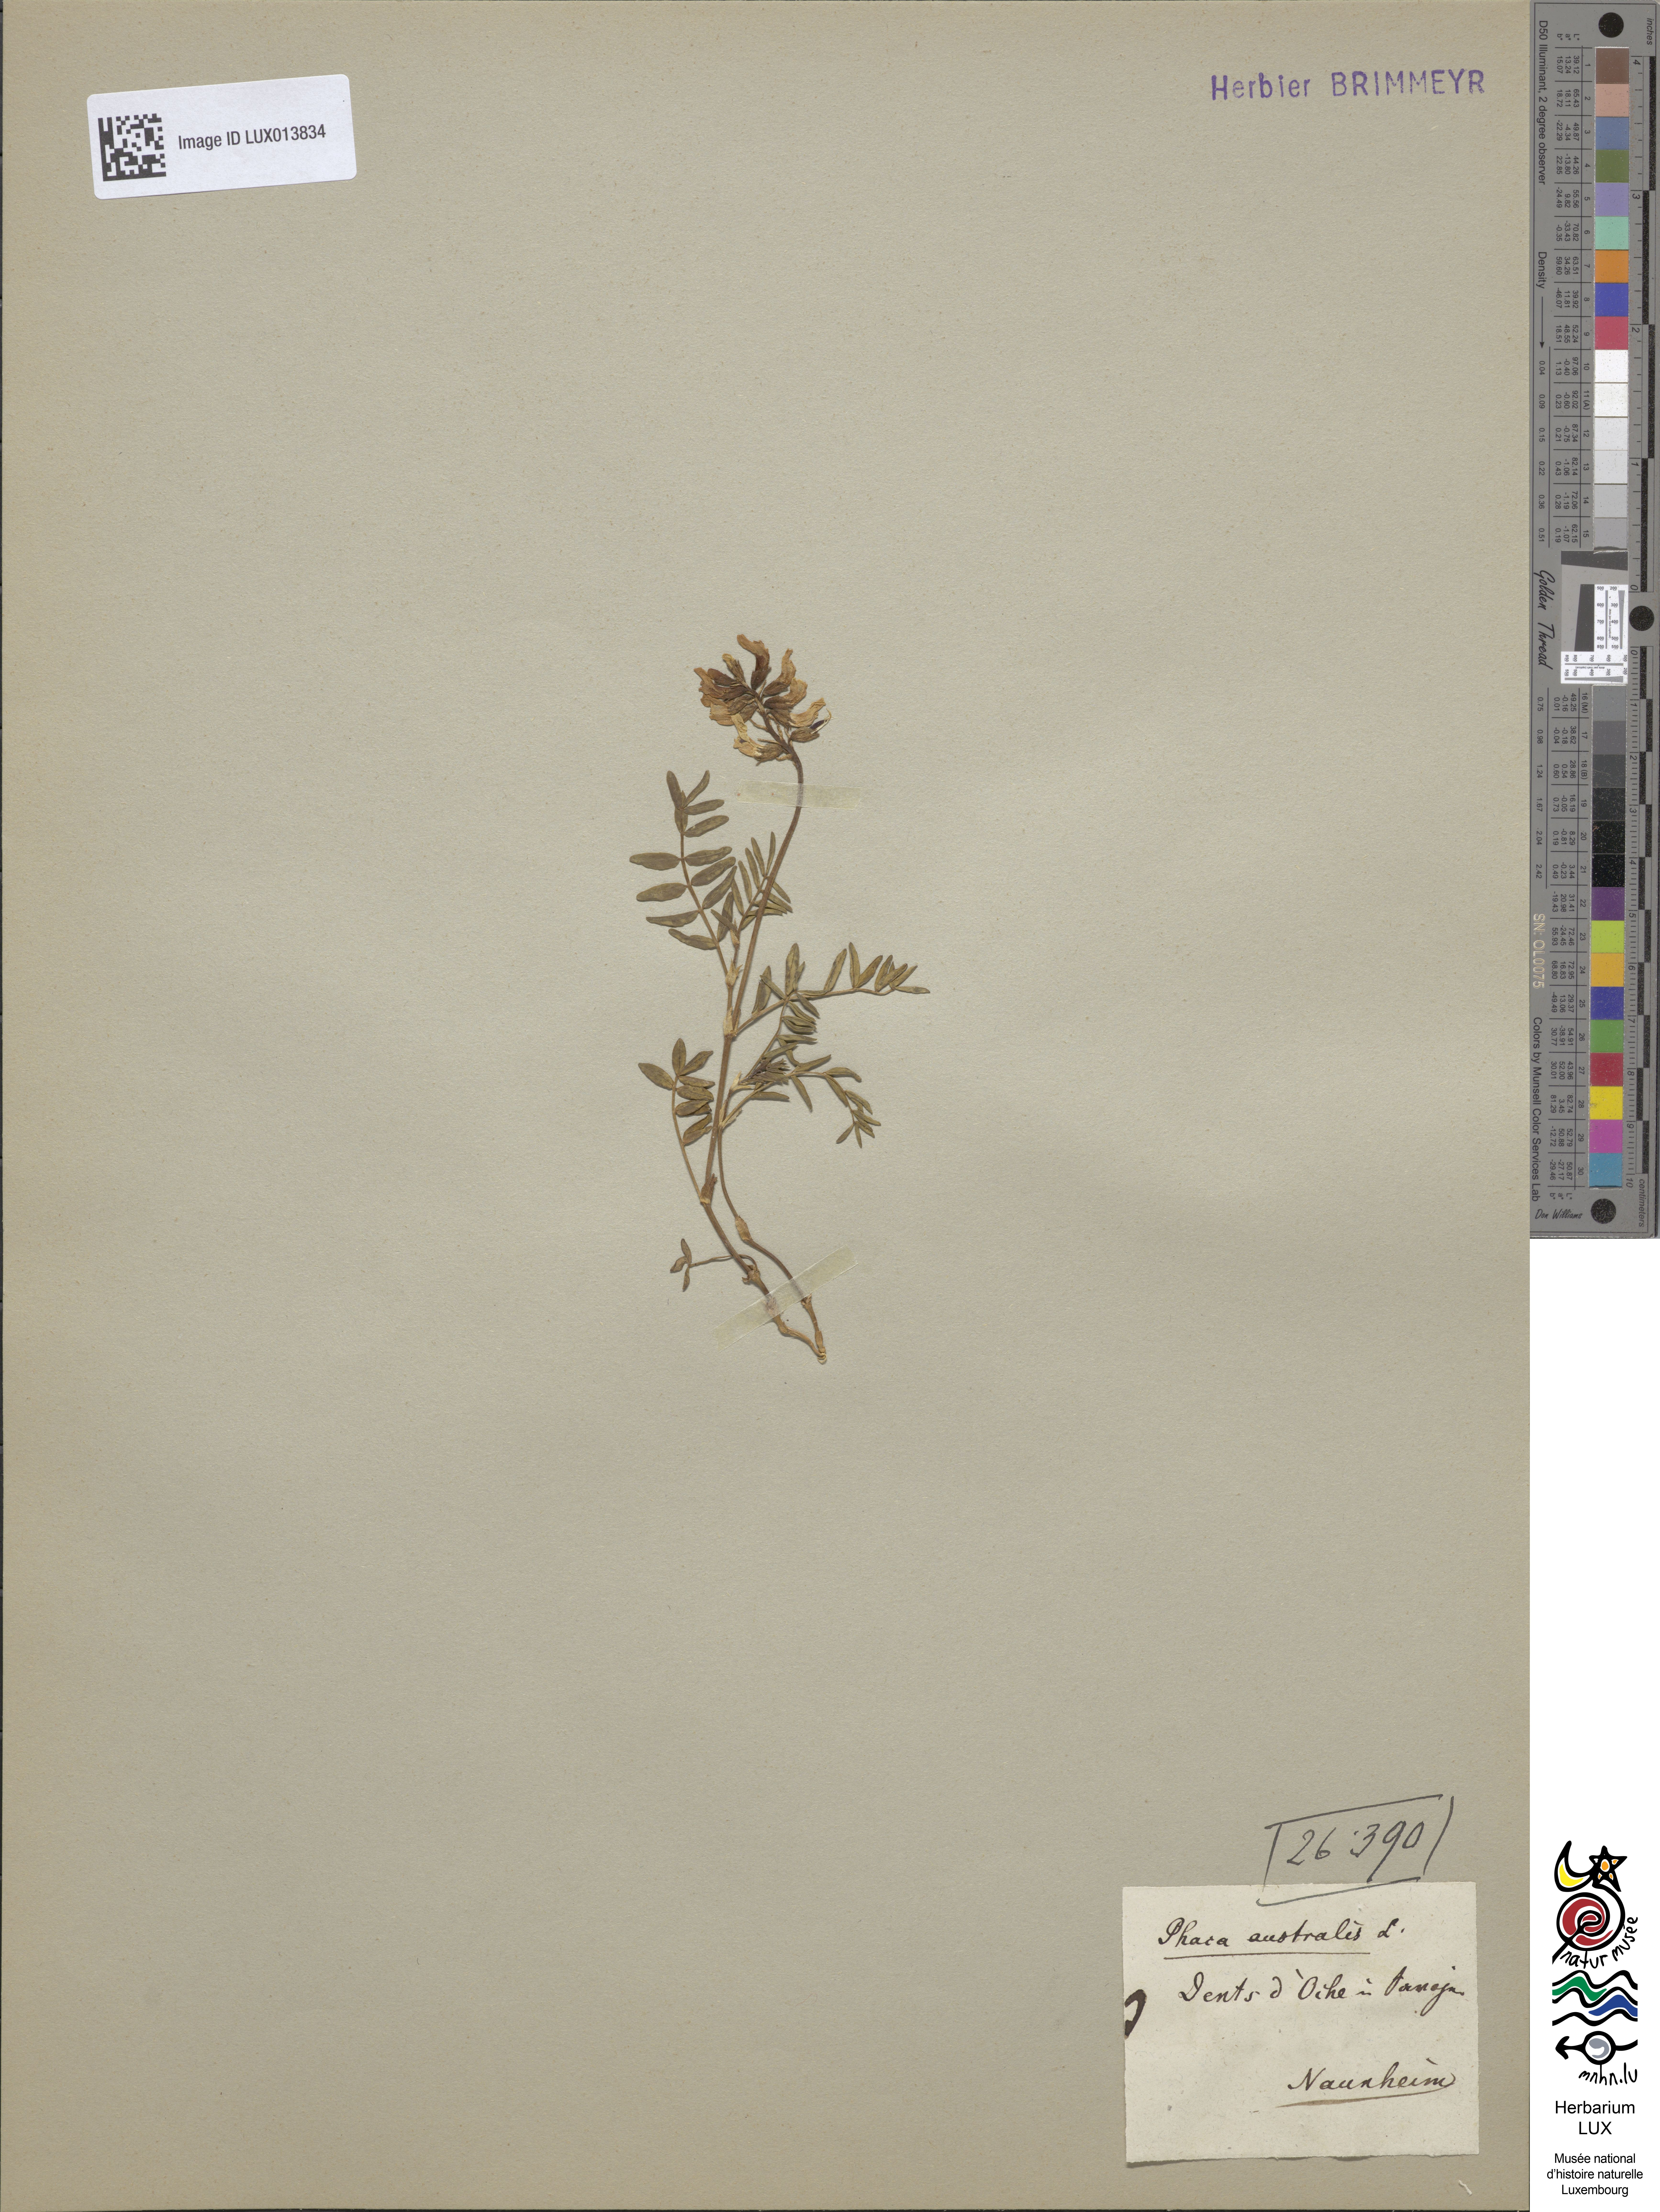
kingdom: Plantae
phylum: Tracheophyta
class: Magnoliopsida
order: Fabales
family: Fabaceae
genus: Astragalus
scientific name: Astragalus australis
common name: Indian milk-vetch
